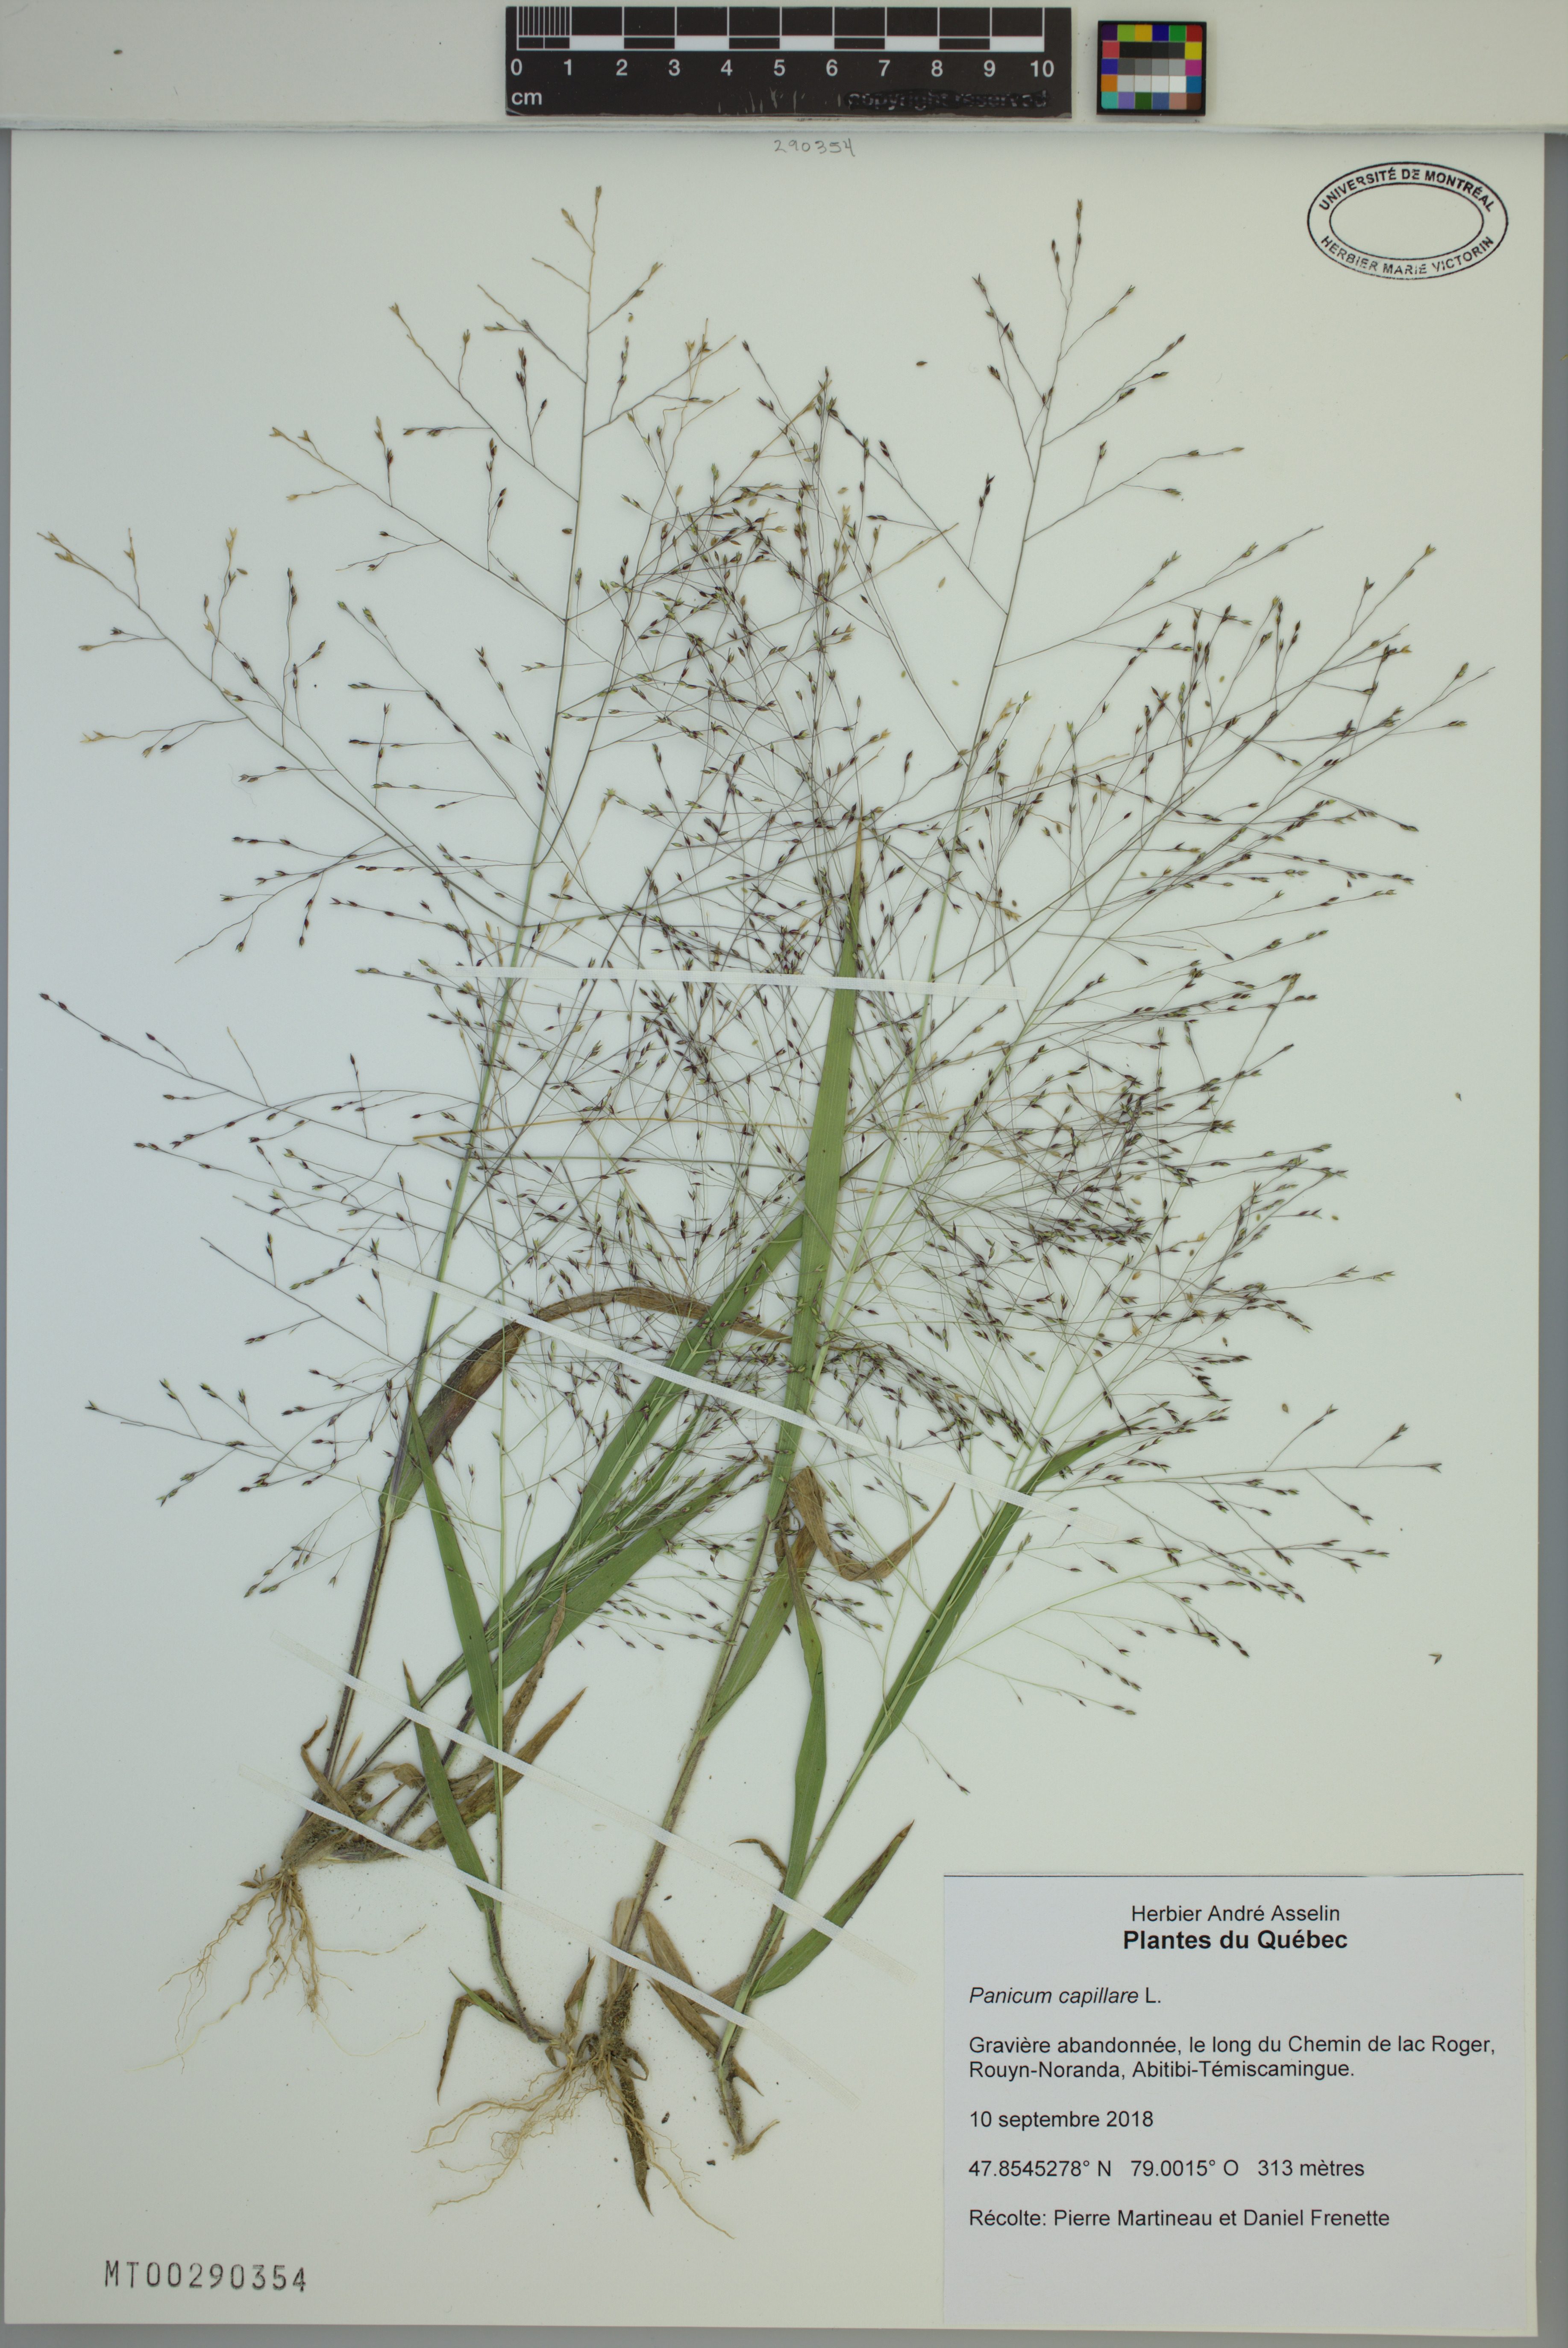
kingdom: Plantae
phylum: Tracheophyta
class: Liliopsida
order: Poales
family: Poaceae
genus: Panicum
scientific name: Panicum capillare
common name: Witch-grass
